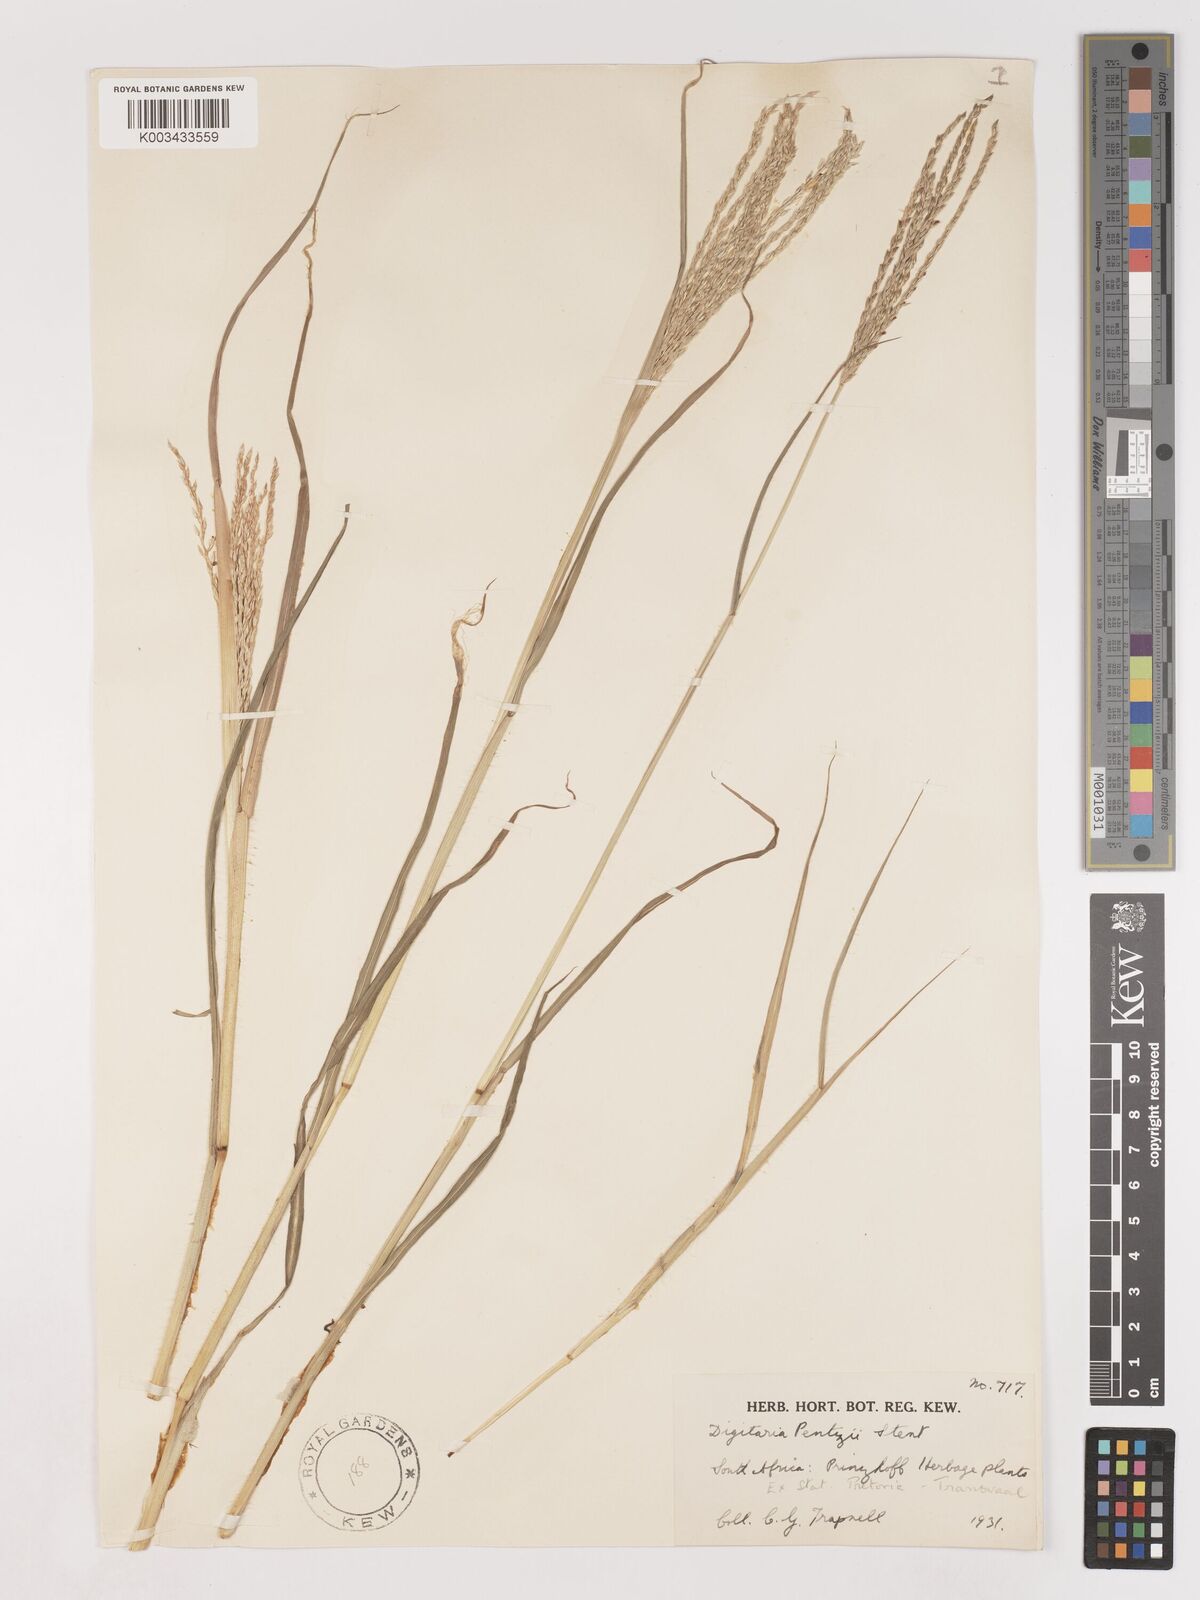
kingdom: Plantae
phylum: Tracheophyta
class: Liliopsida
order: Poales
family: Poaceae
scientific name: Poaceae
